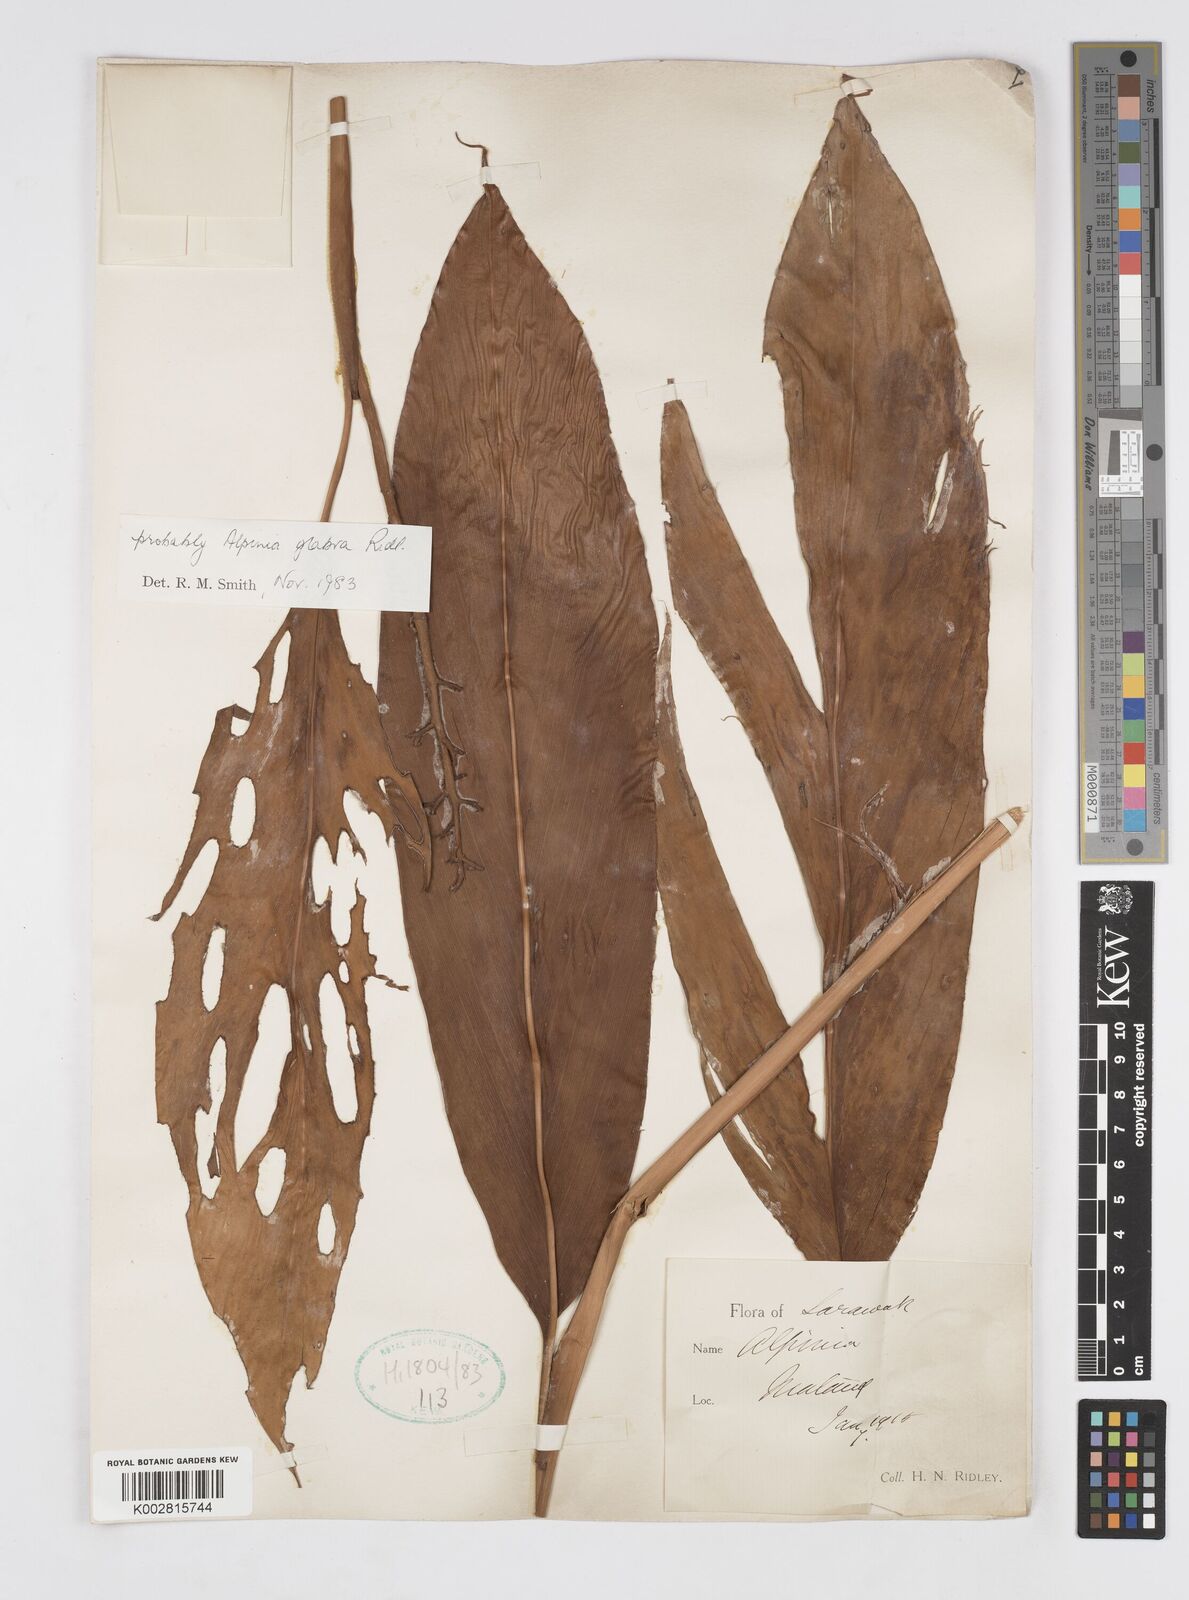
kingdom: Plantae
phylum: Tracheophyta
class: Liliopsida
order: Zingiberales
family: Zingiberaceae
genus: Alpinia
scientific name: Alpinia glabra
